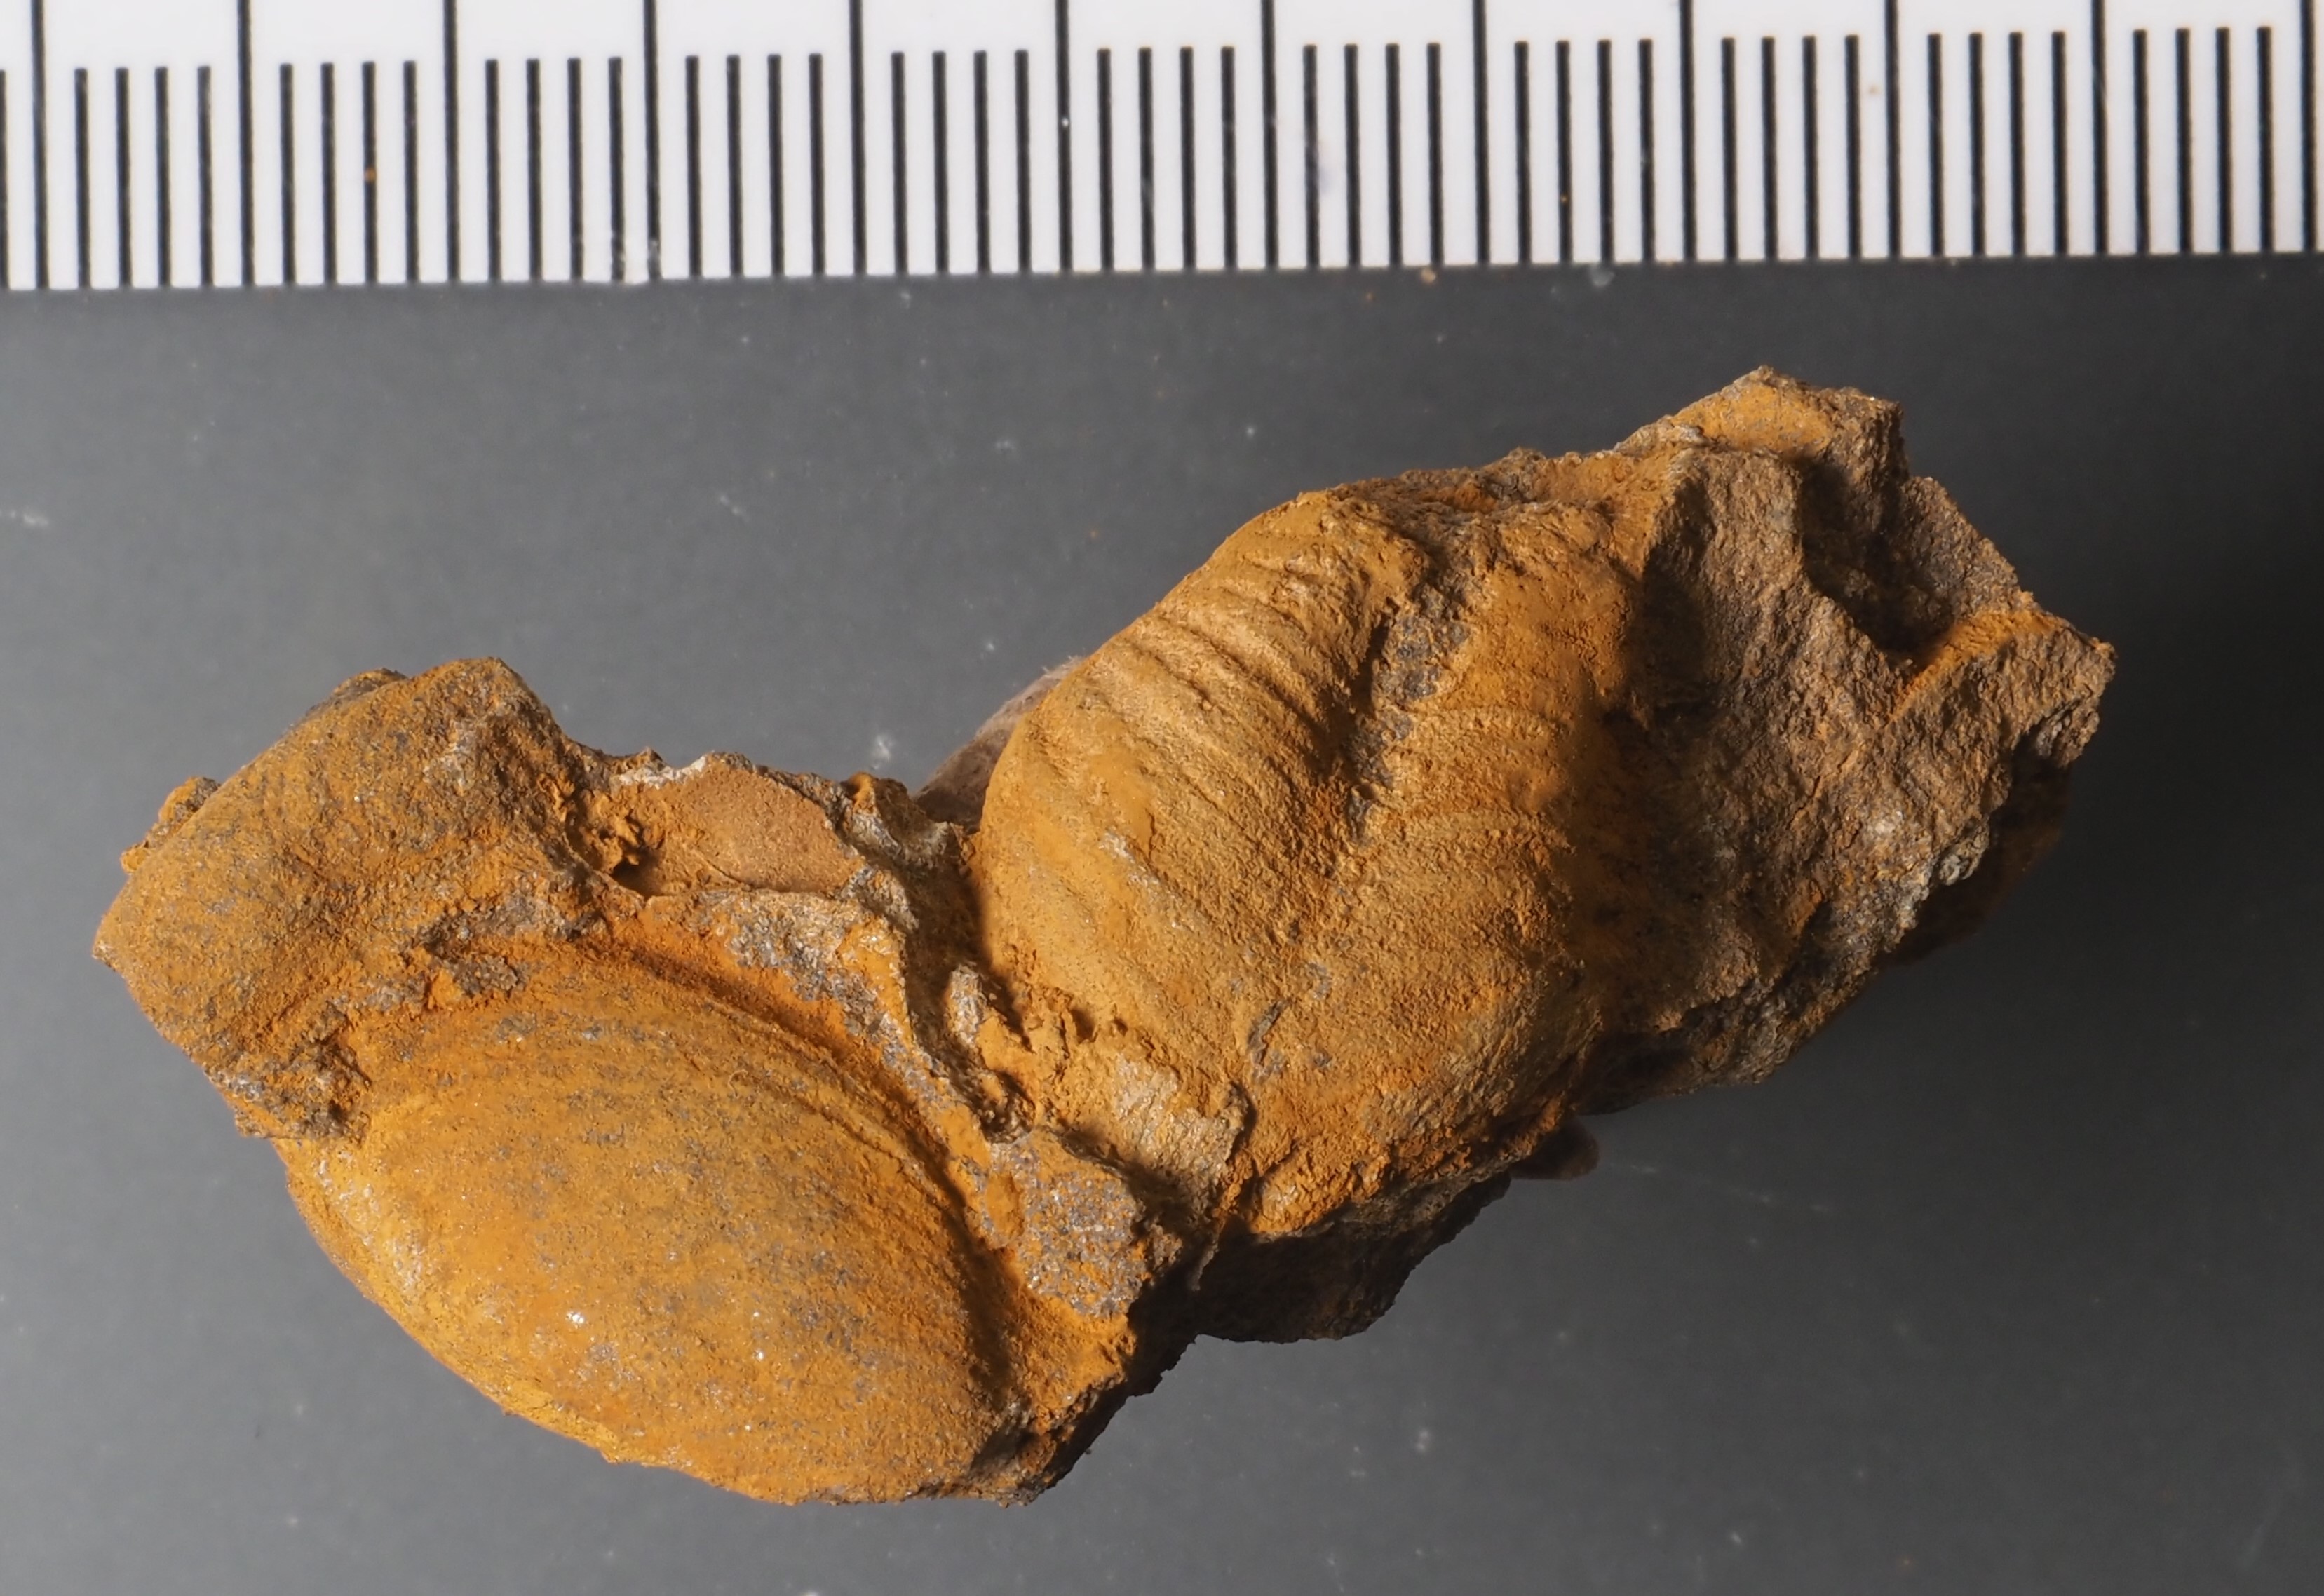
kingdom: Animalia
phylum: Brachiopoda
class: Rhynchonellata
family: Hysterolitidae
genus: Arduspirifer
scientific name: Arduspirifer Spirifer arduennensis
